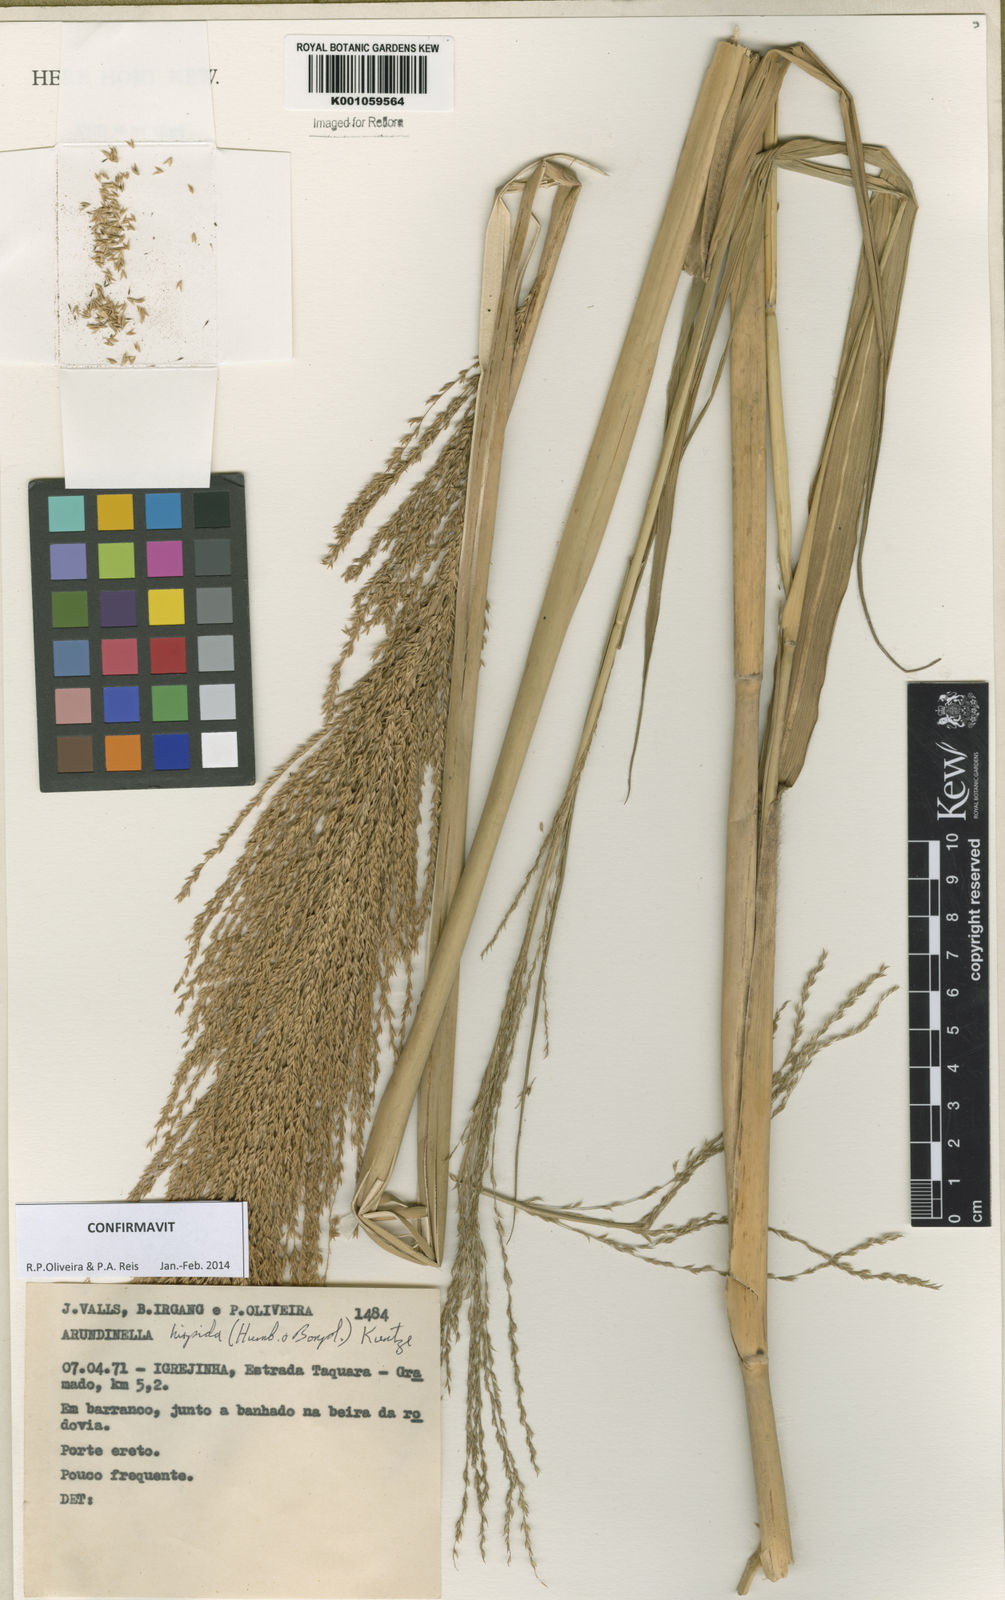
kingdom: Plantae
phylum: Tracheophyta
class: Liliopsida
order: Poales
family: Poaceae
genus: Arundinella
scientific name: Arundinella hispida
